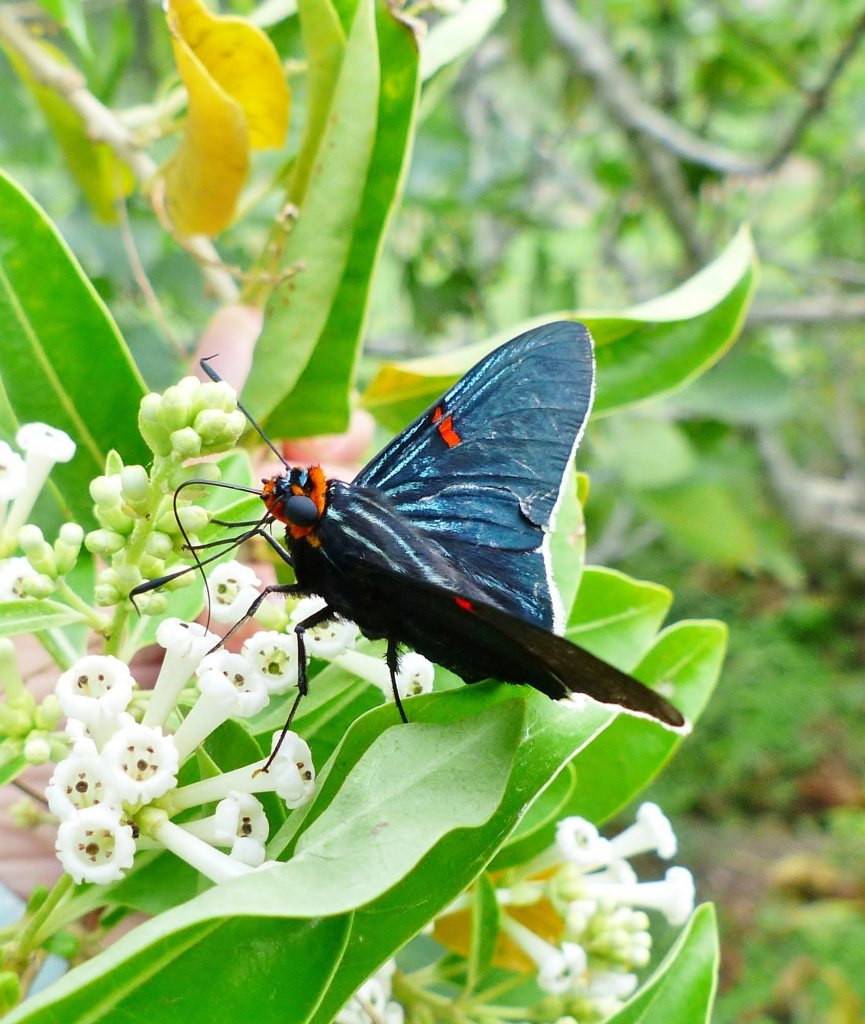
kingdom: Animalia
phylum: Arthropoda
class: Insecta
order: Lepidoptera
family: Hesperiidae
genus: Phocides
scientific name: Phocides polybius
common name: Guava Skipper
